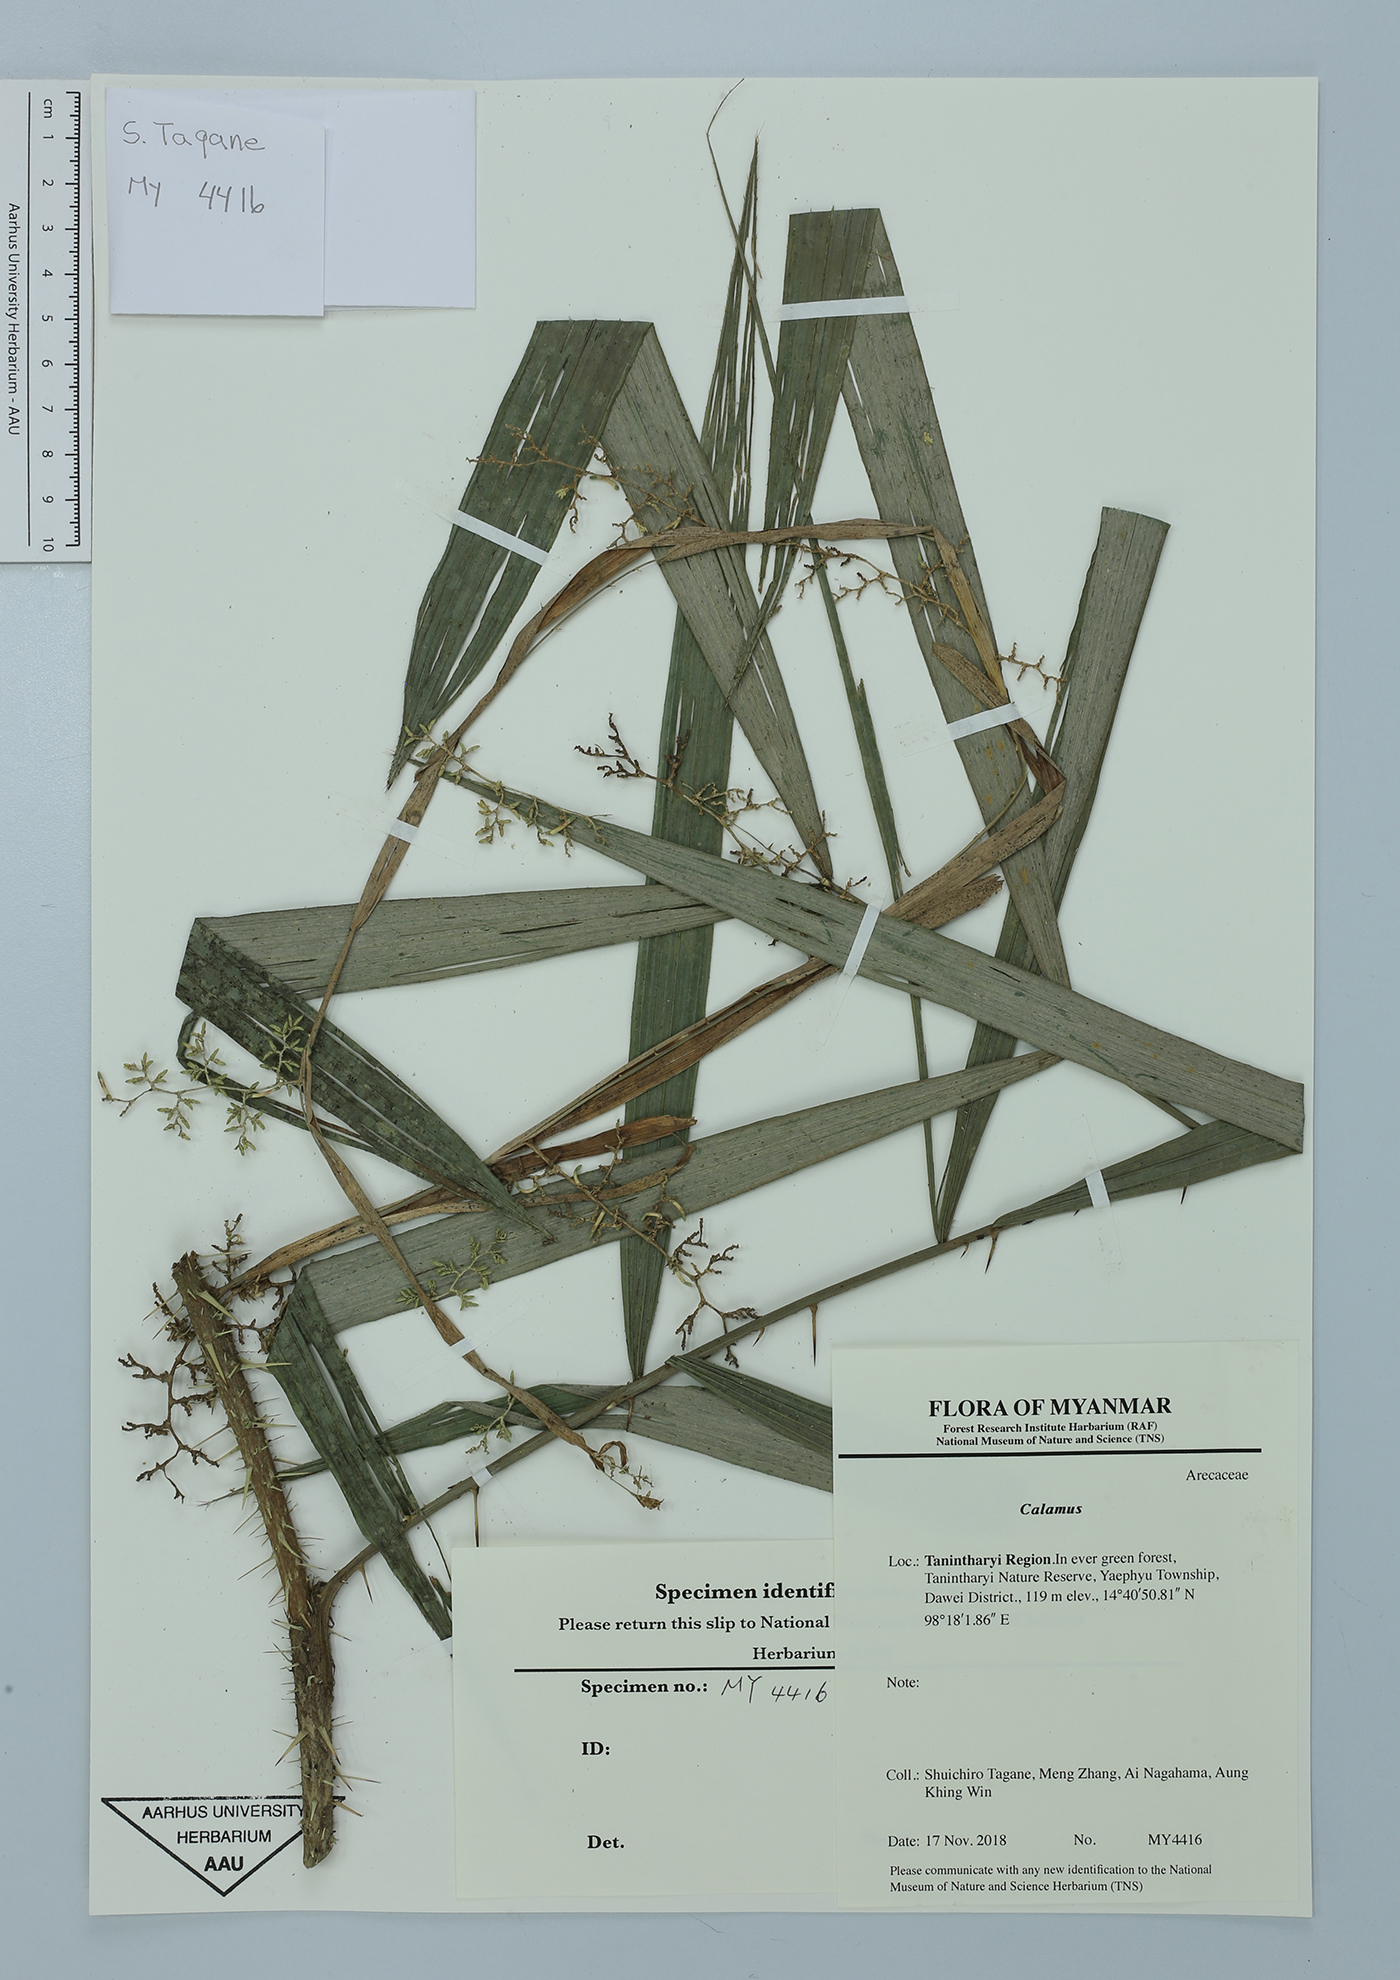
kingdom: Plantae
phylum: Tracheophyta
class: Liliopsida
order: Arecales
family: Arecaceae
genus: Calamus
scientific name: Calamus
